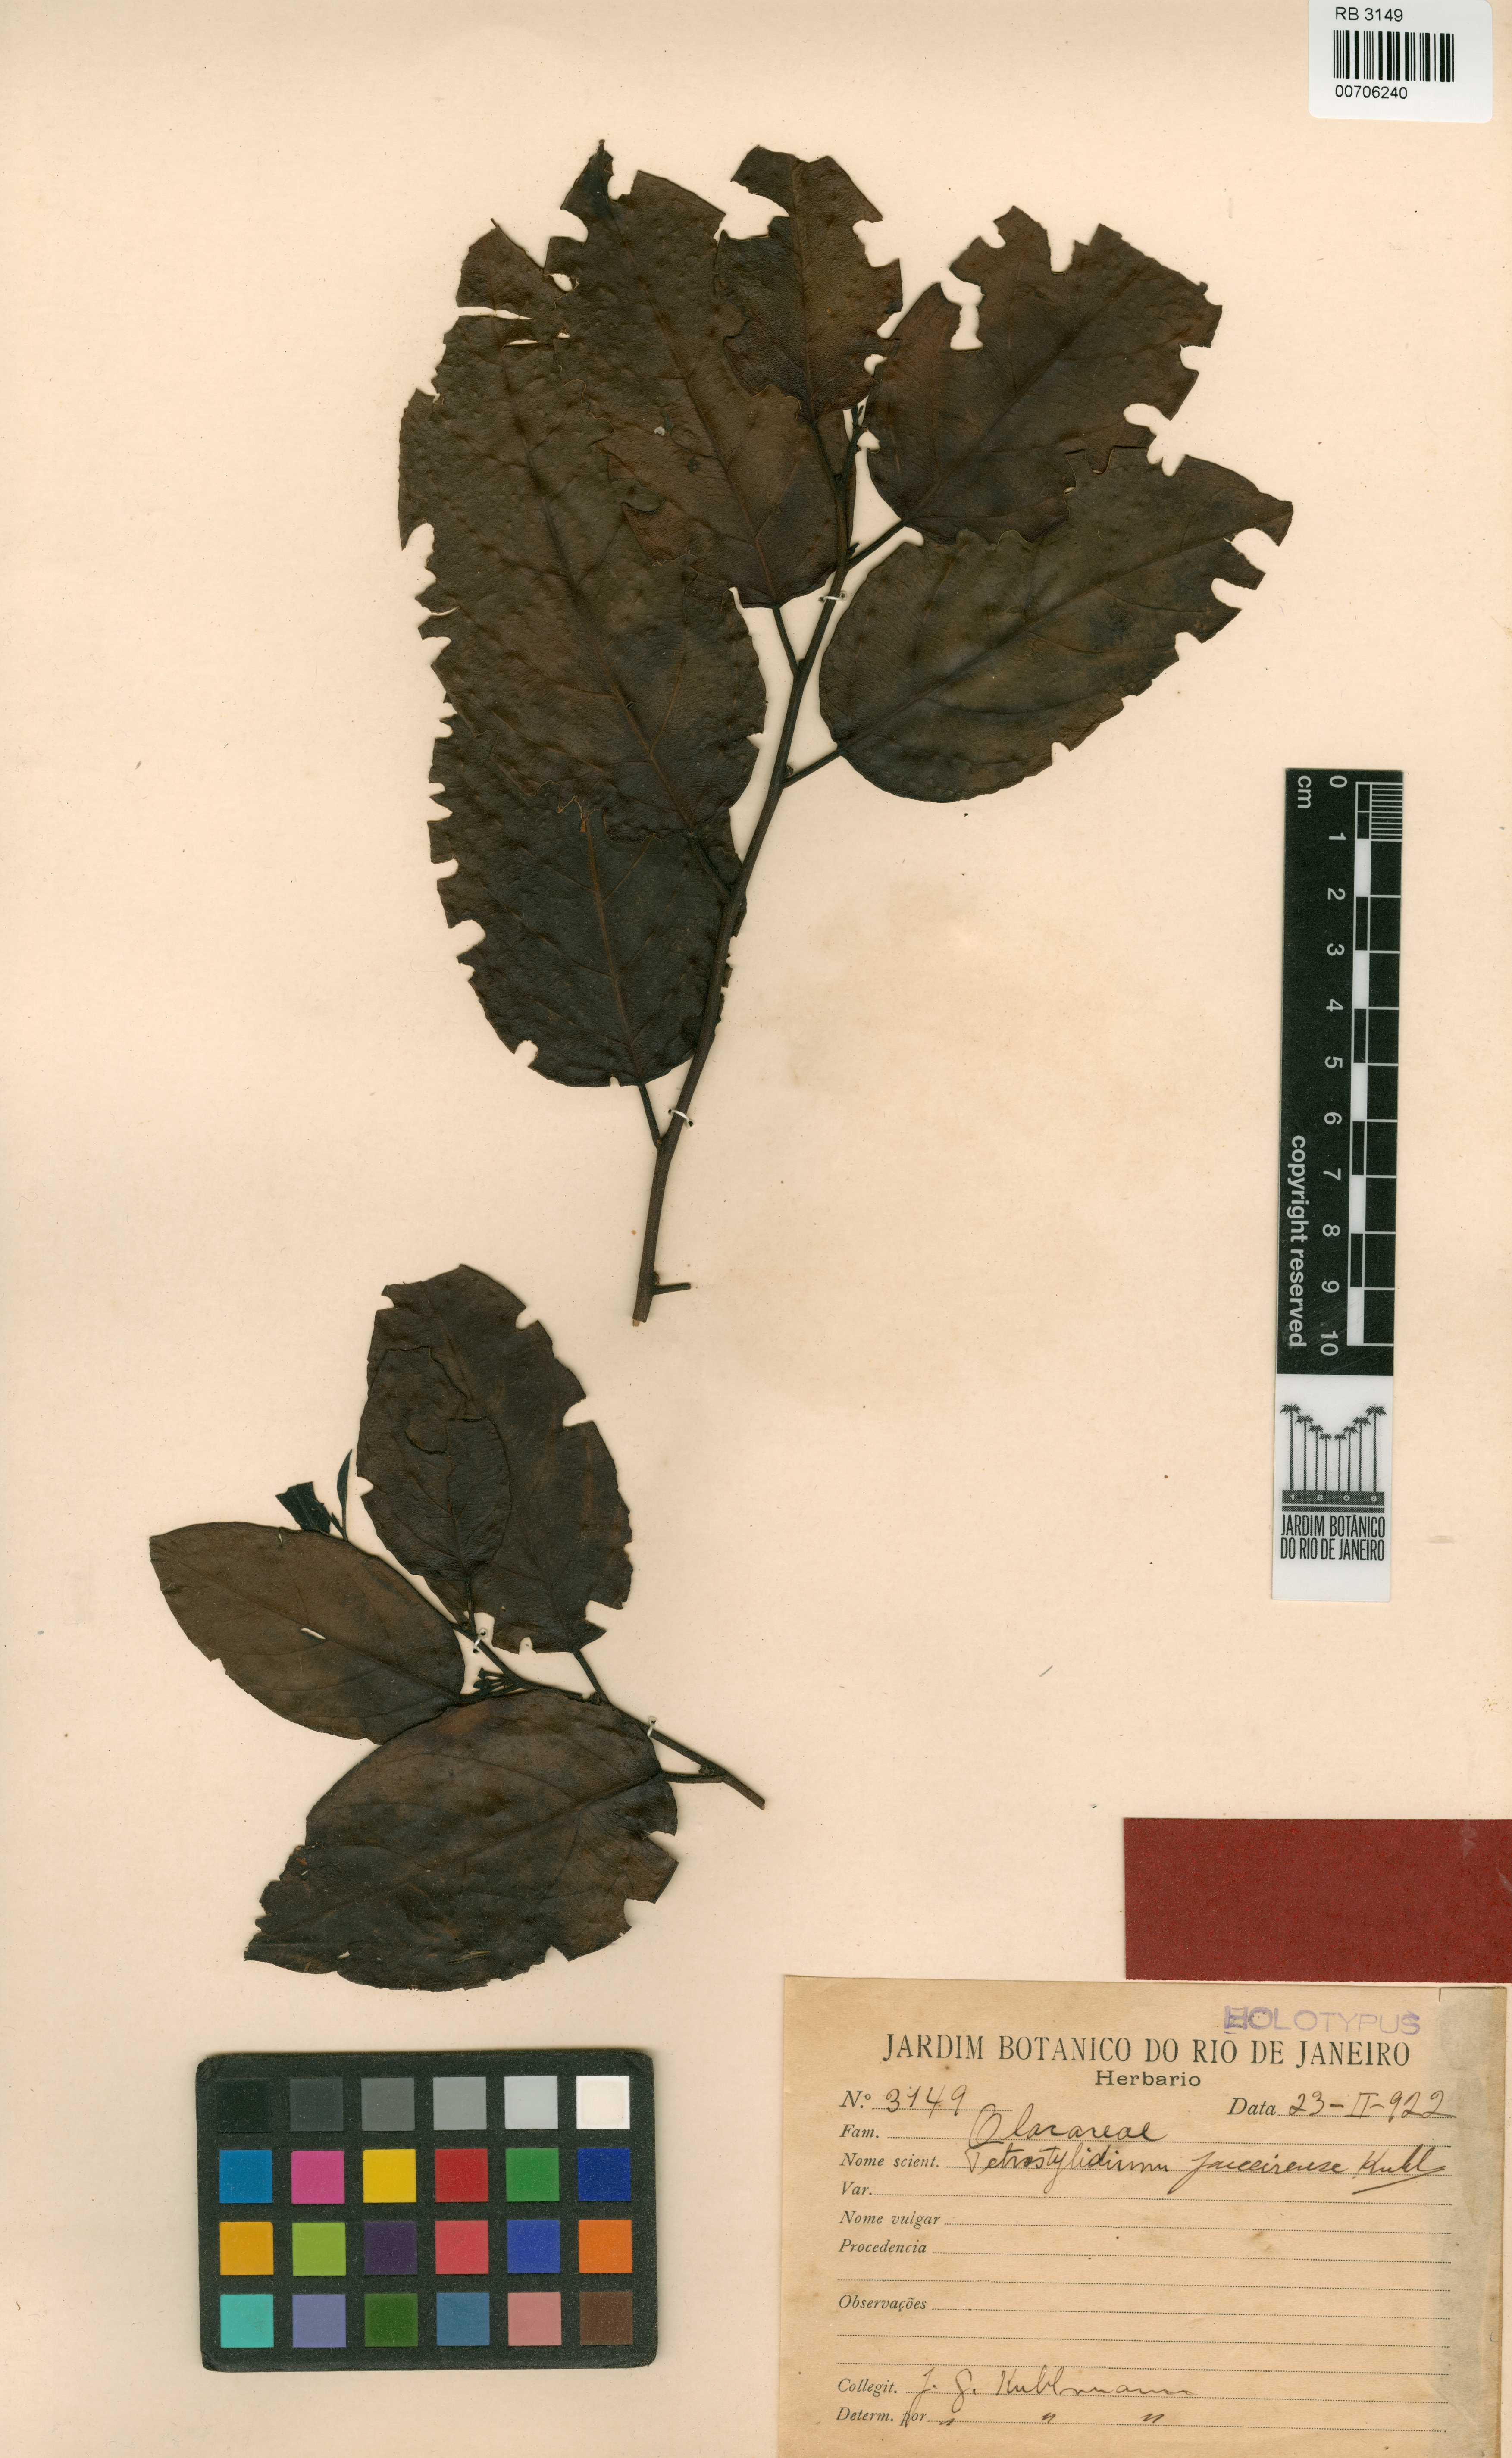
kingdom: Plantae
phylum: Tracheophyta
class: Magnoliopsida
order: Santalales
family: Strombosiaceae
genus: Tetrastylidium
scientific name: Tetrastylidium grandifolium
